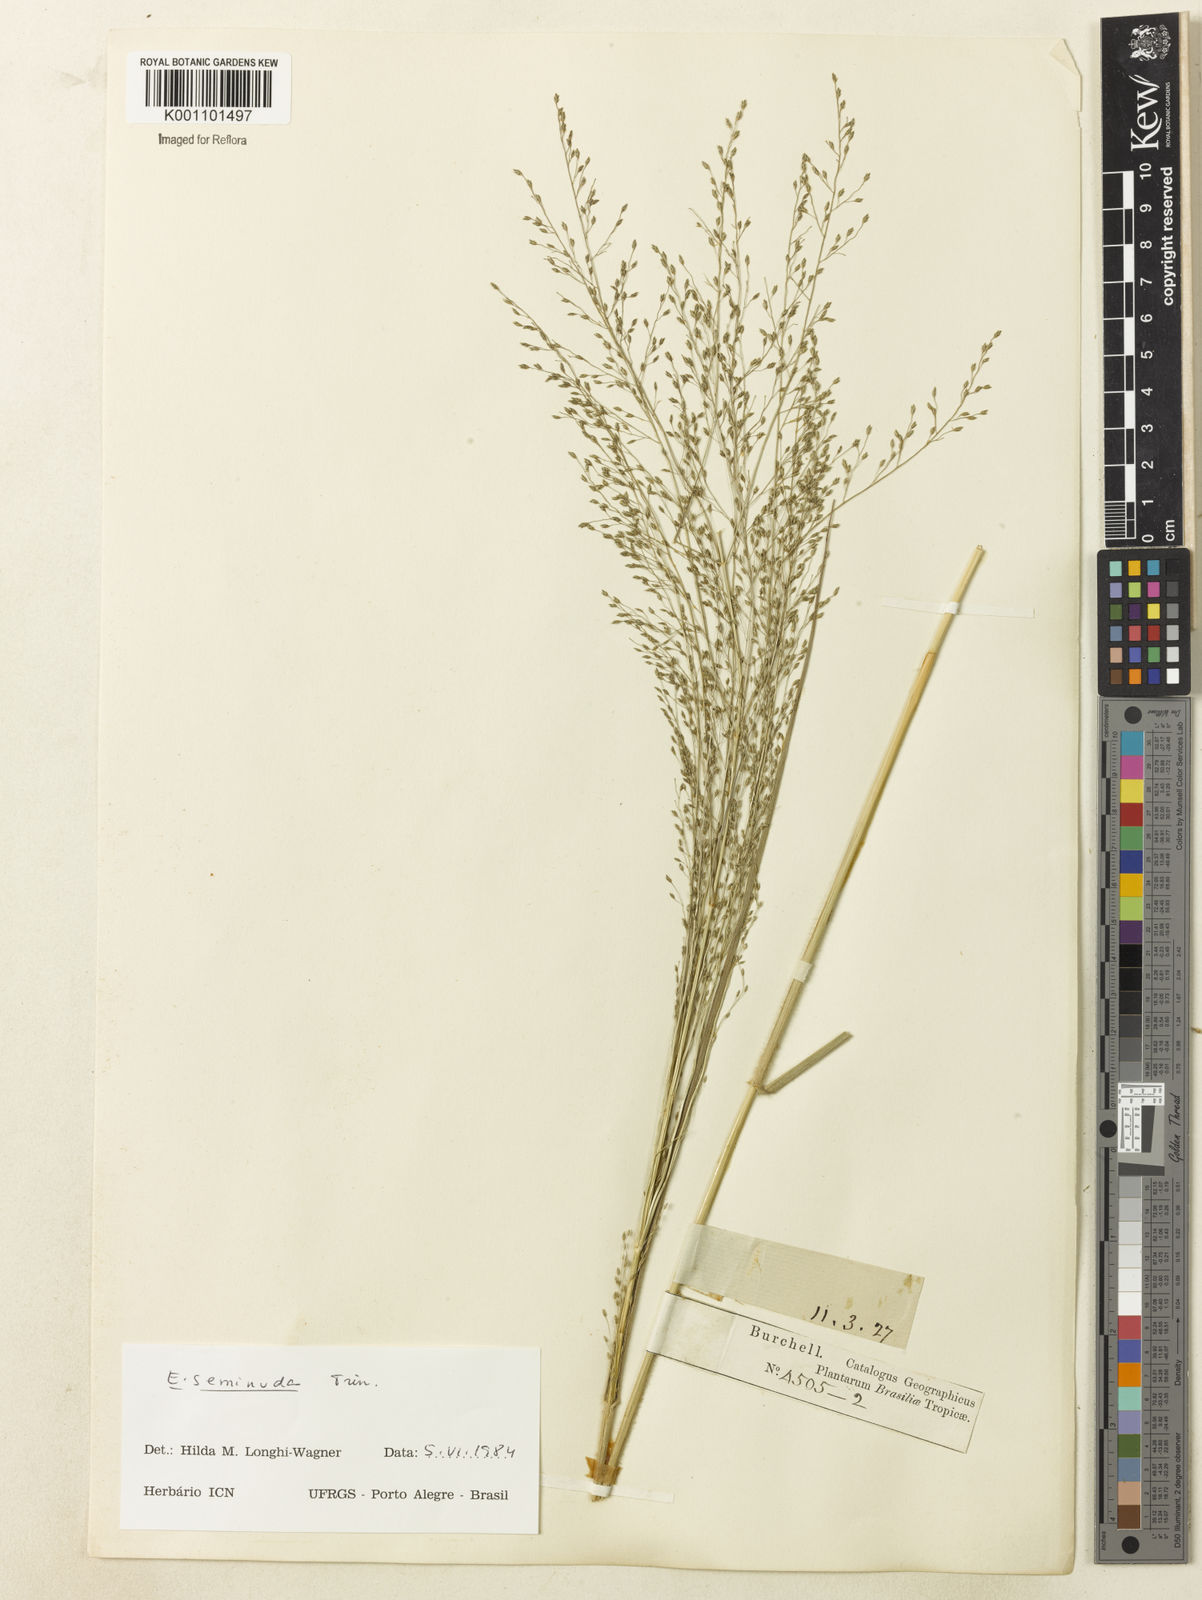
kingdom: Plantae
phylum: Tracheophyta
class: Liliopsida
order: Poales
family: Poaceae
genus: Eragrostis
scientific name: Eragrostis seminuda
